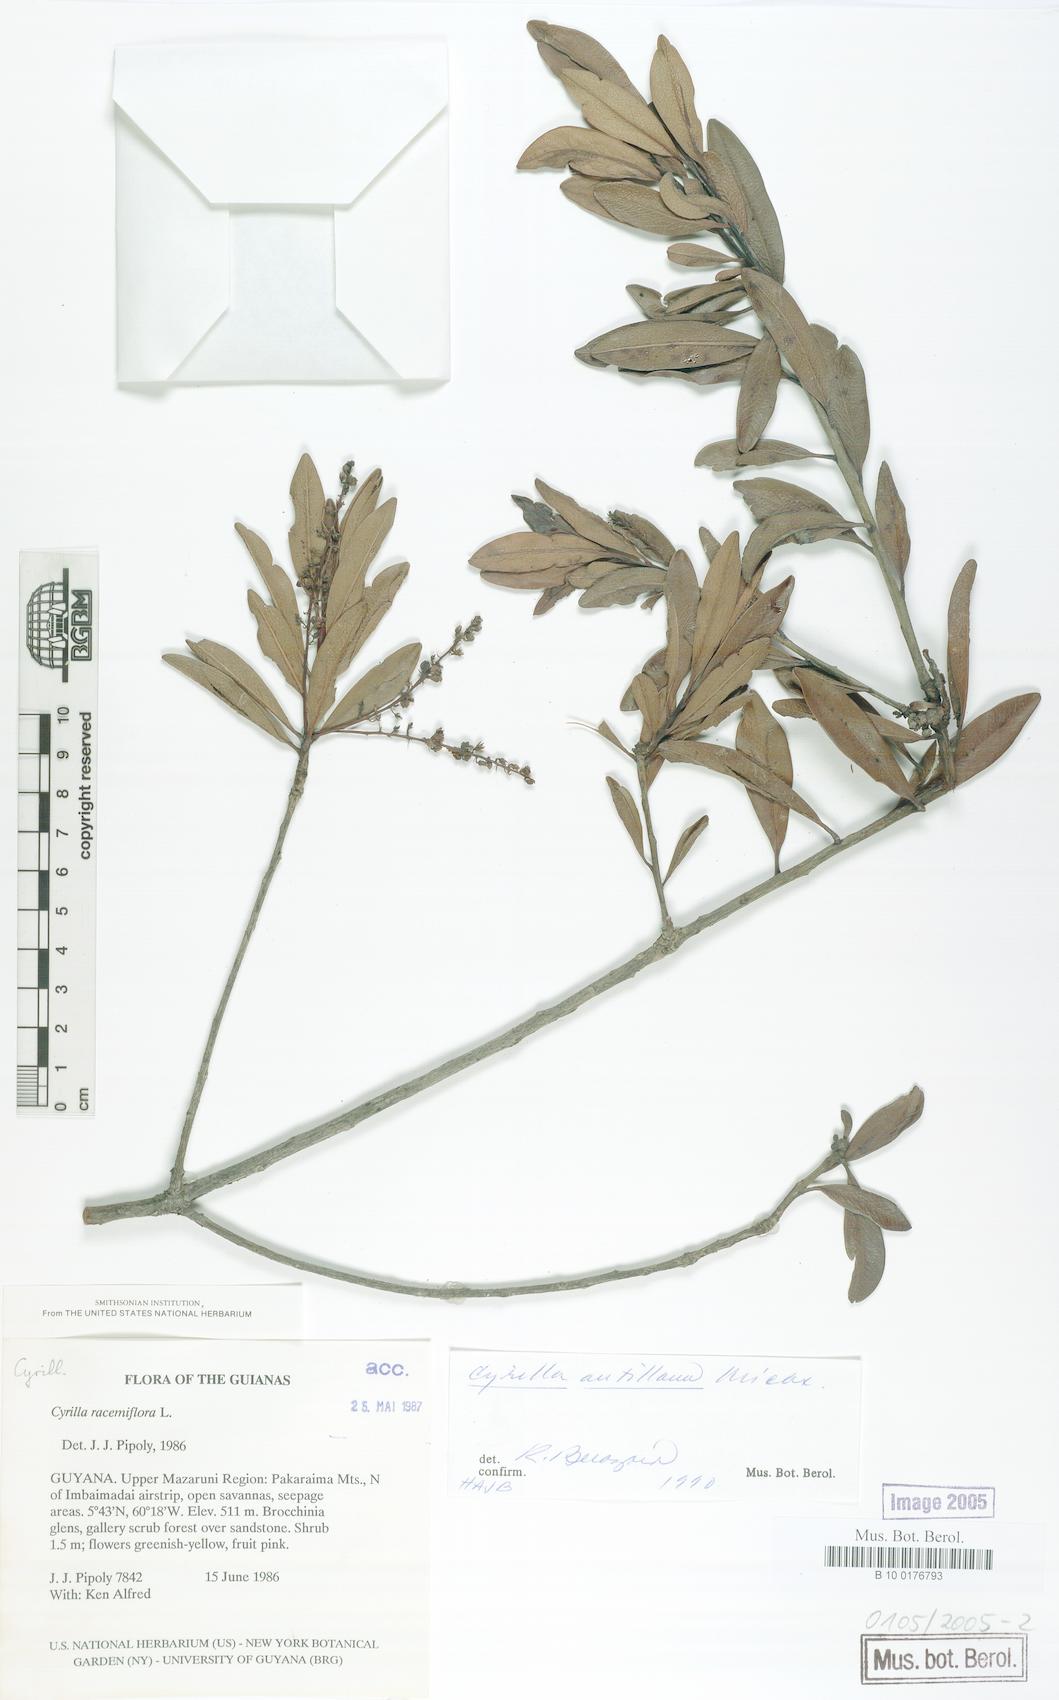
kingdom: Plantae
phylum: Tracheophyta
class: Magnoliopsida
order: Ericales
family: Cyrillaceae
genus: Cyrilla
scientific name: Cyrilla racemiflora
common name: Black titi
